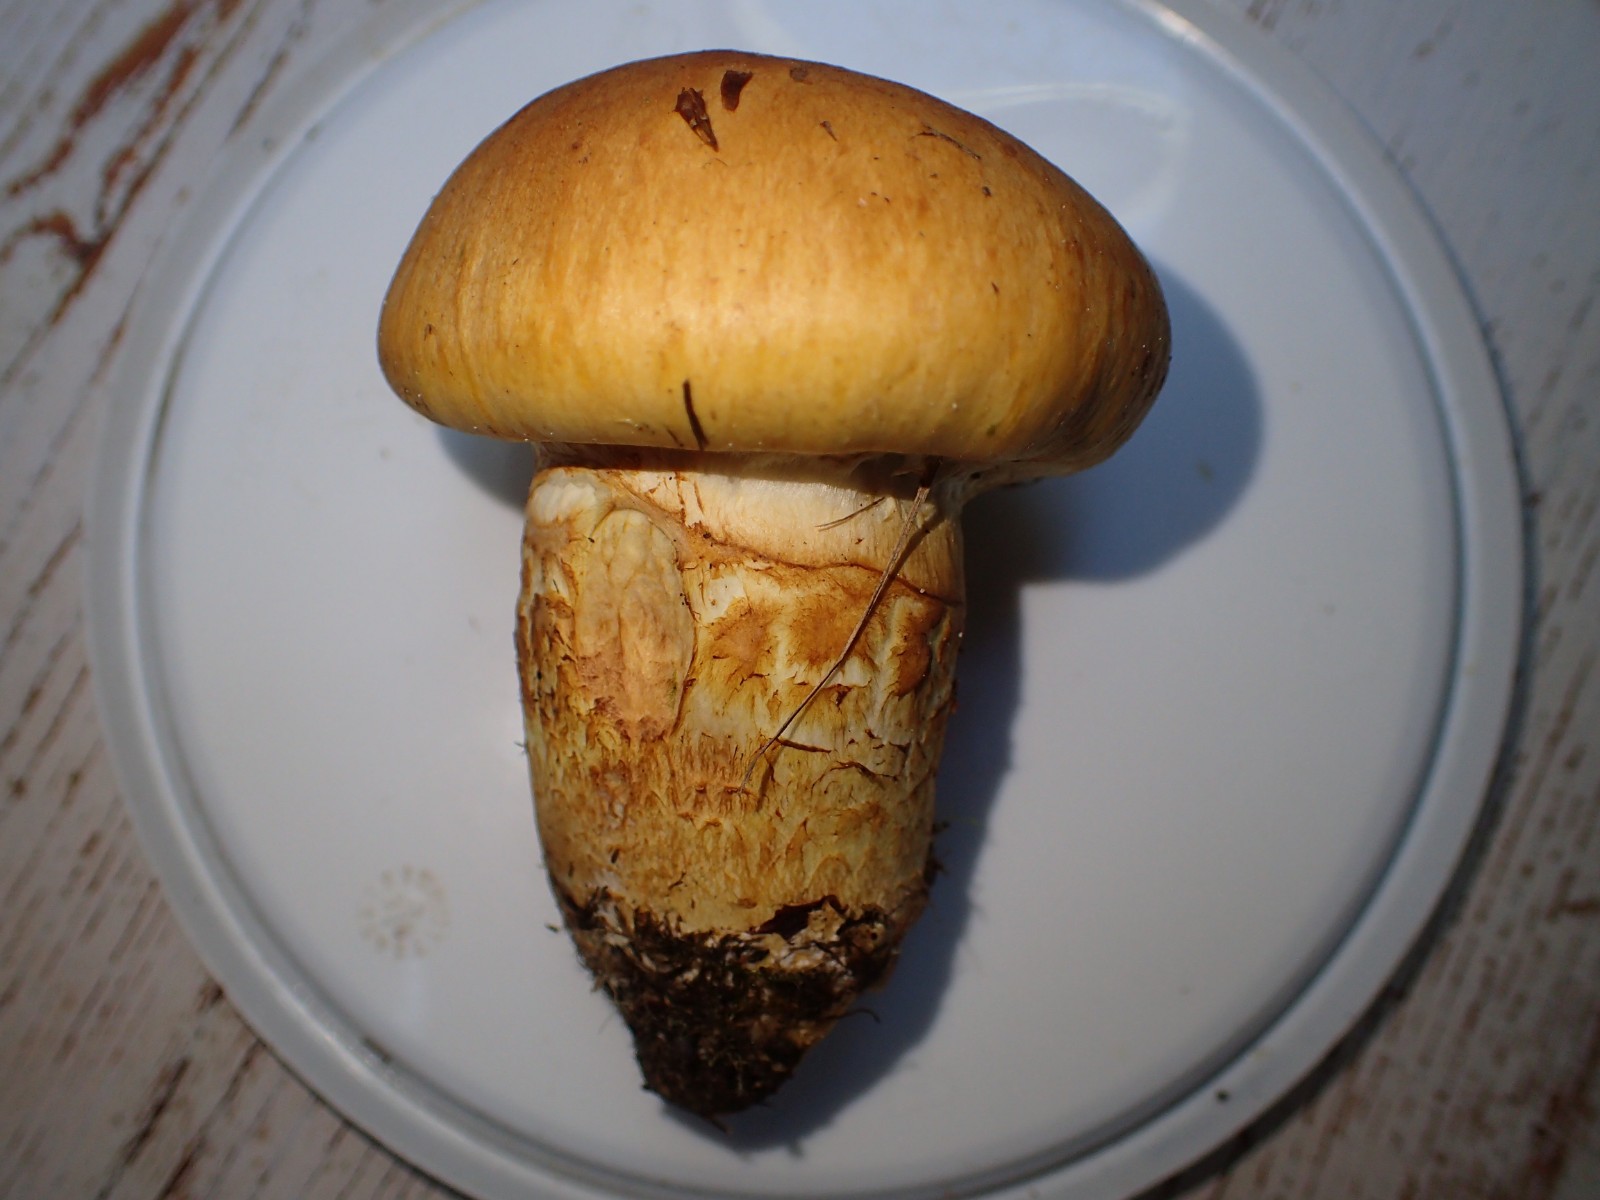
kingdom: Fungi
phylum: Basidiomycota
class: Agaricomycetes
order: Agaricales
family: Cortinariaceae
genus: Phlegmacium
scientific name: Phlegmacium triumphans
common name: gulbæltet slørhat
